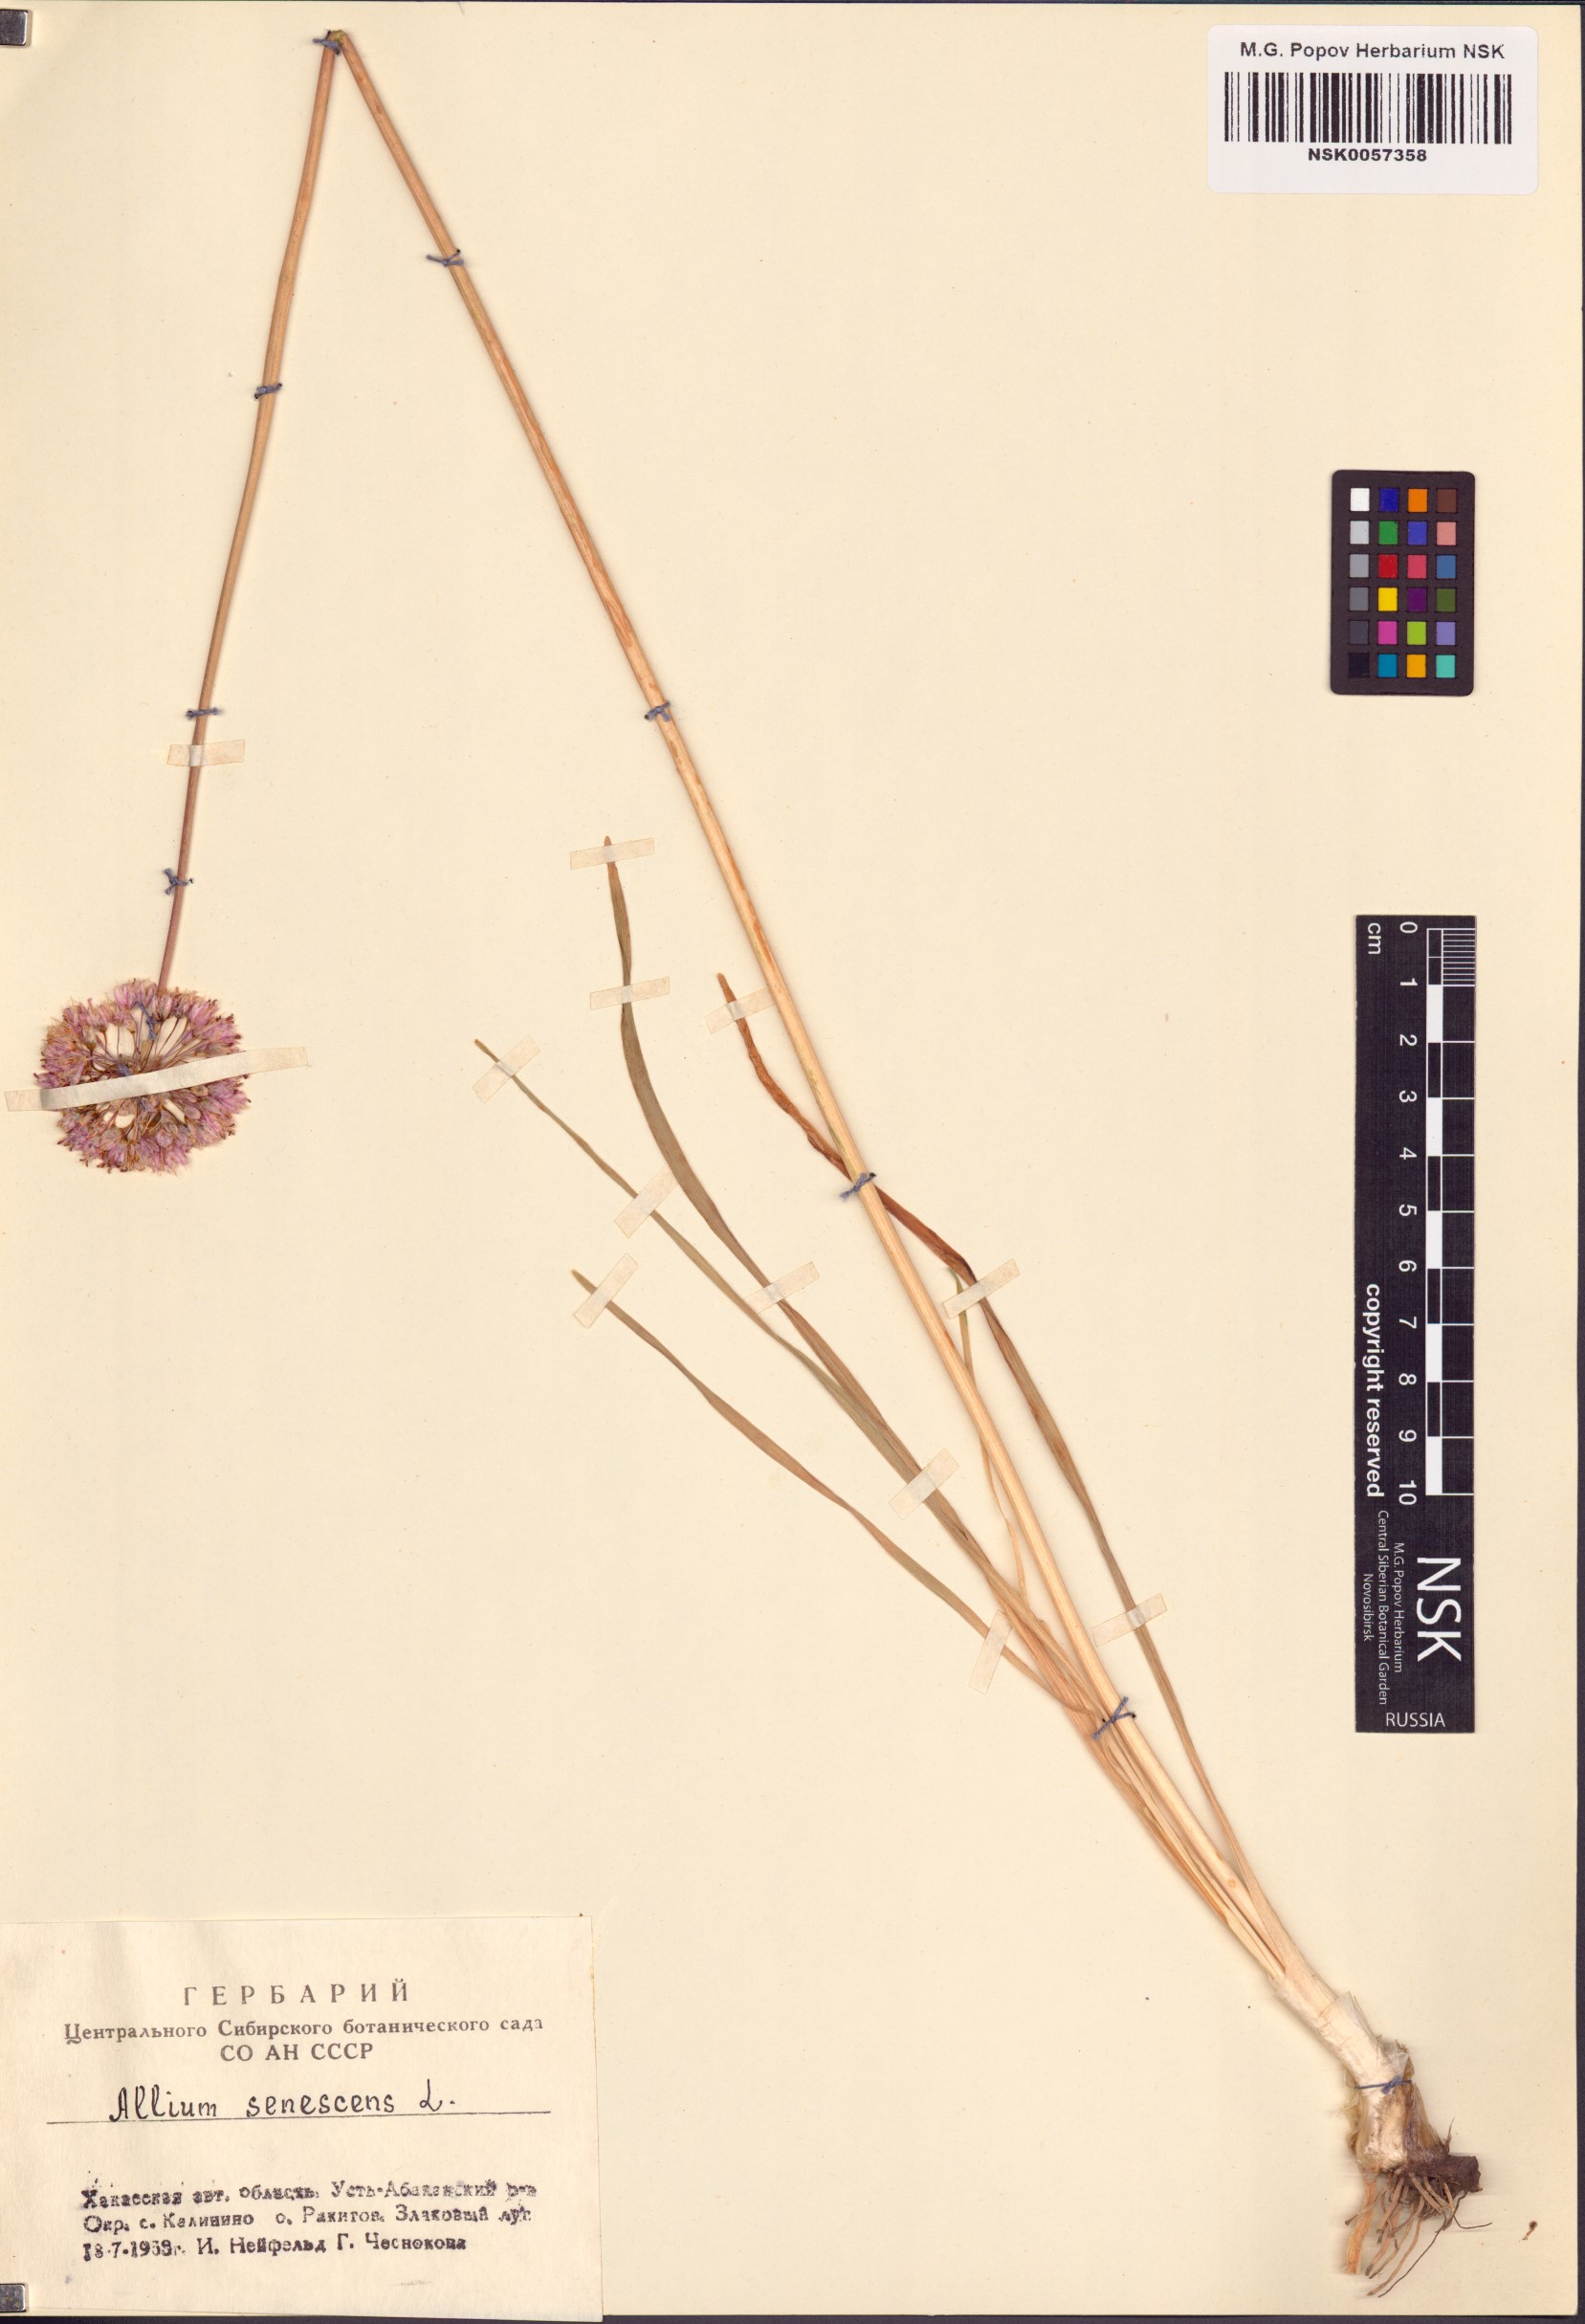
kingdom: Plantae
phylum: Tracheophyta
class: Liliopsida
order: Asparagales
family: Amaryllidaceae
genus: Allium
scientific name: Allium senescens
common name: German garlic
